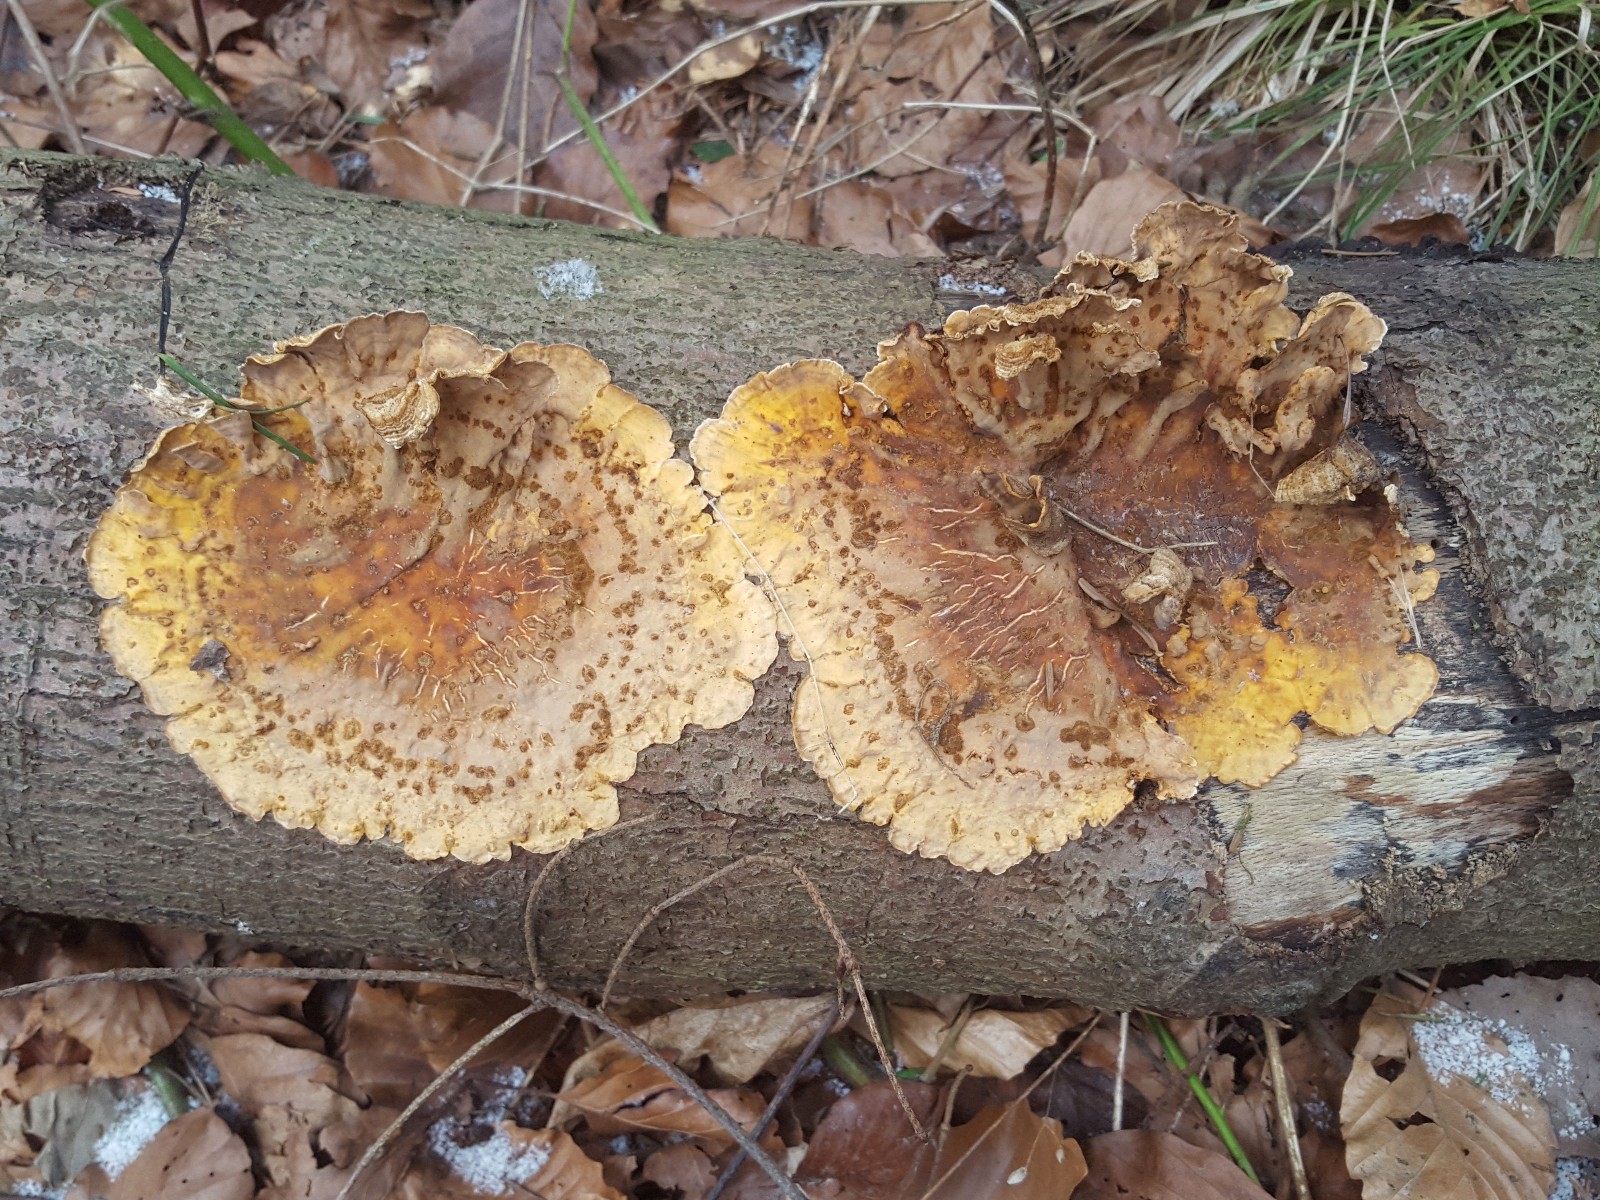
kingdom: Fungi
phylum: Basidiomycota
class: Agaricomycetes
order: Russulales
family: Stereaceae
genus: Stereum
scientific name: Stereum hirsutum
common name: håret lædersvamp
